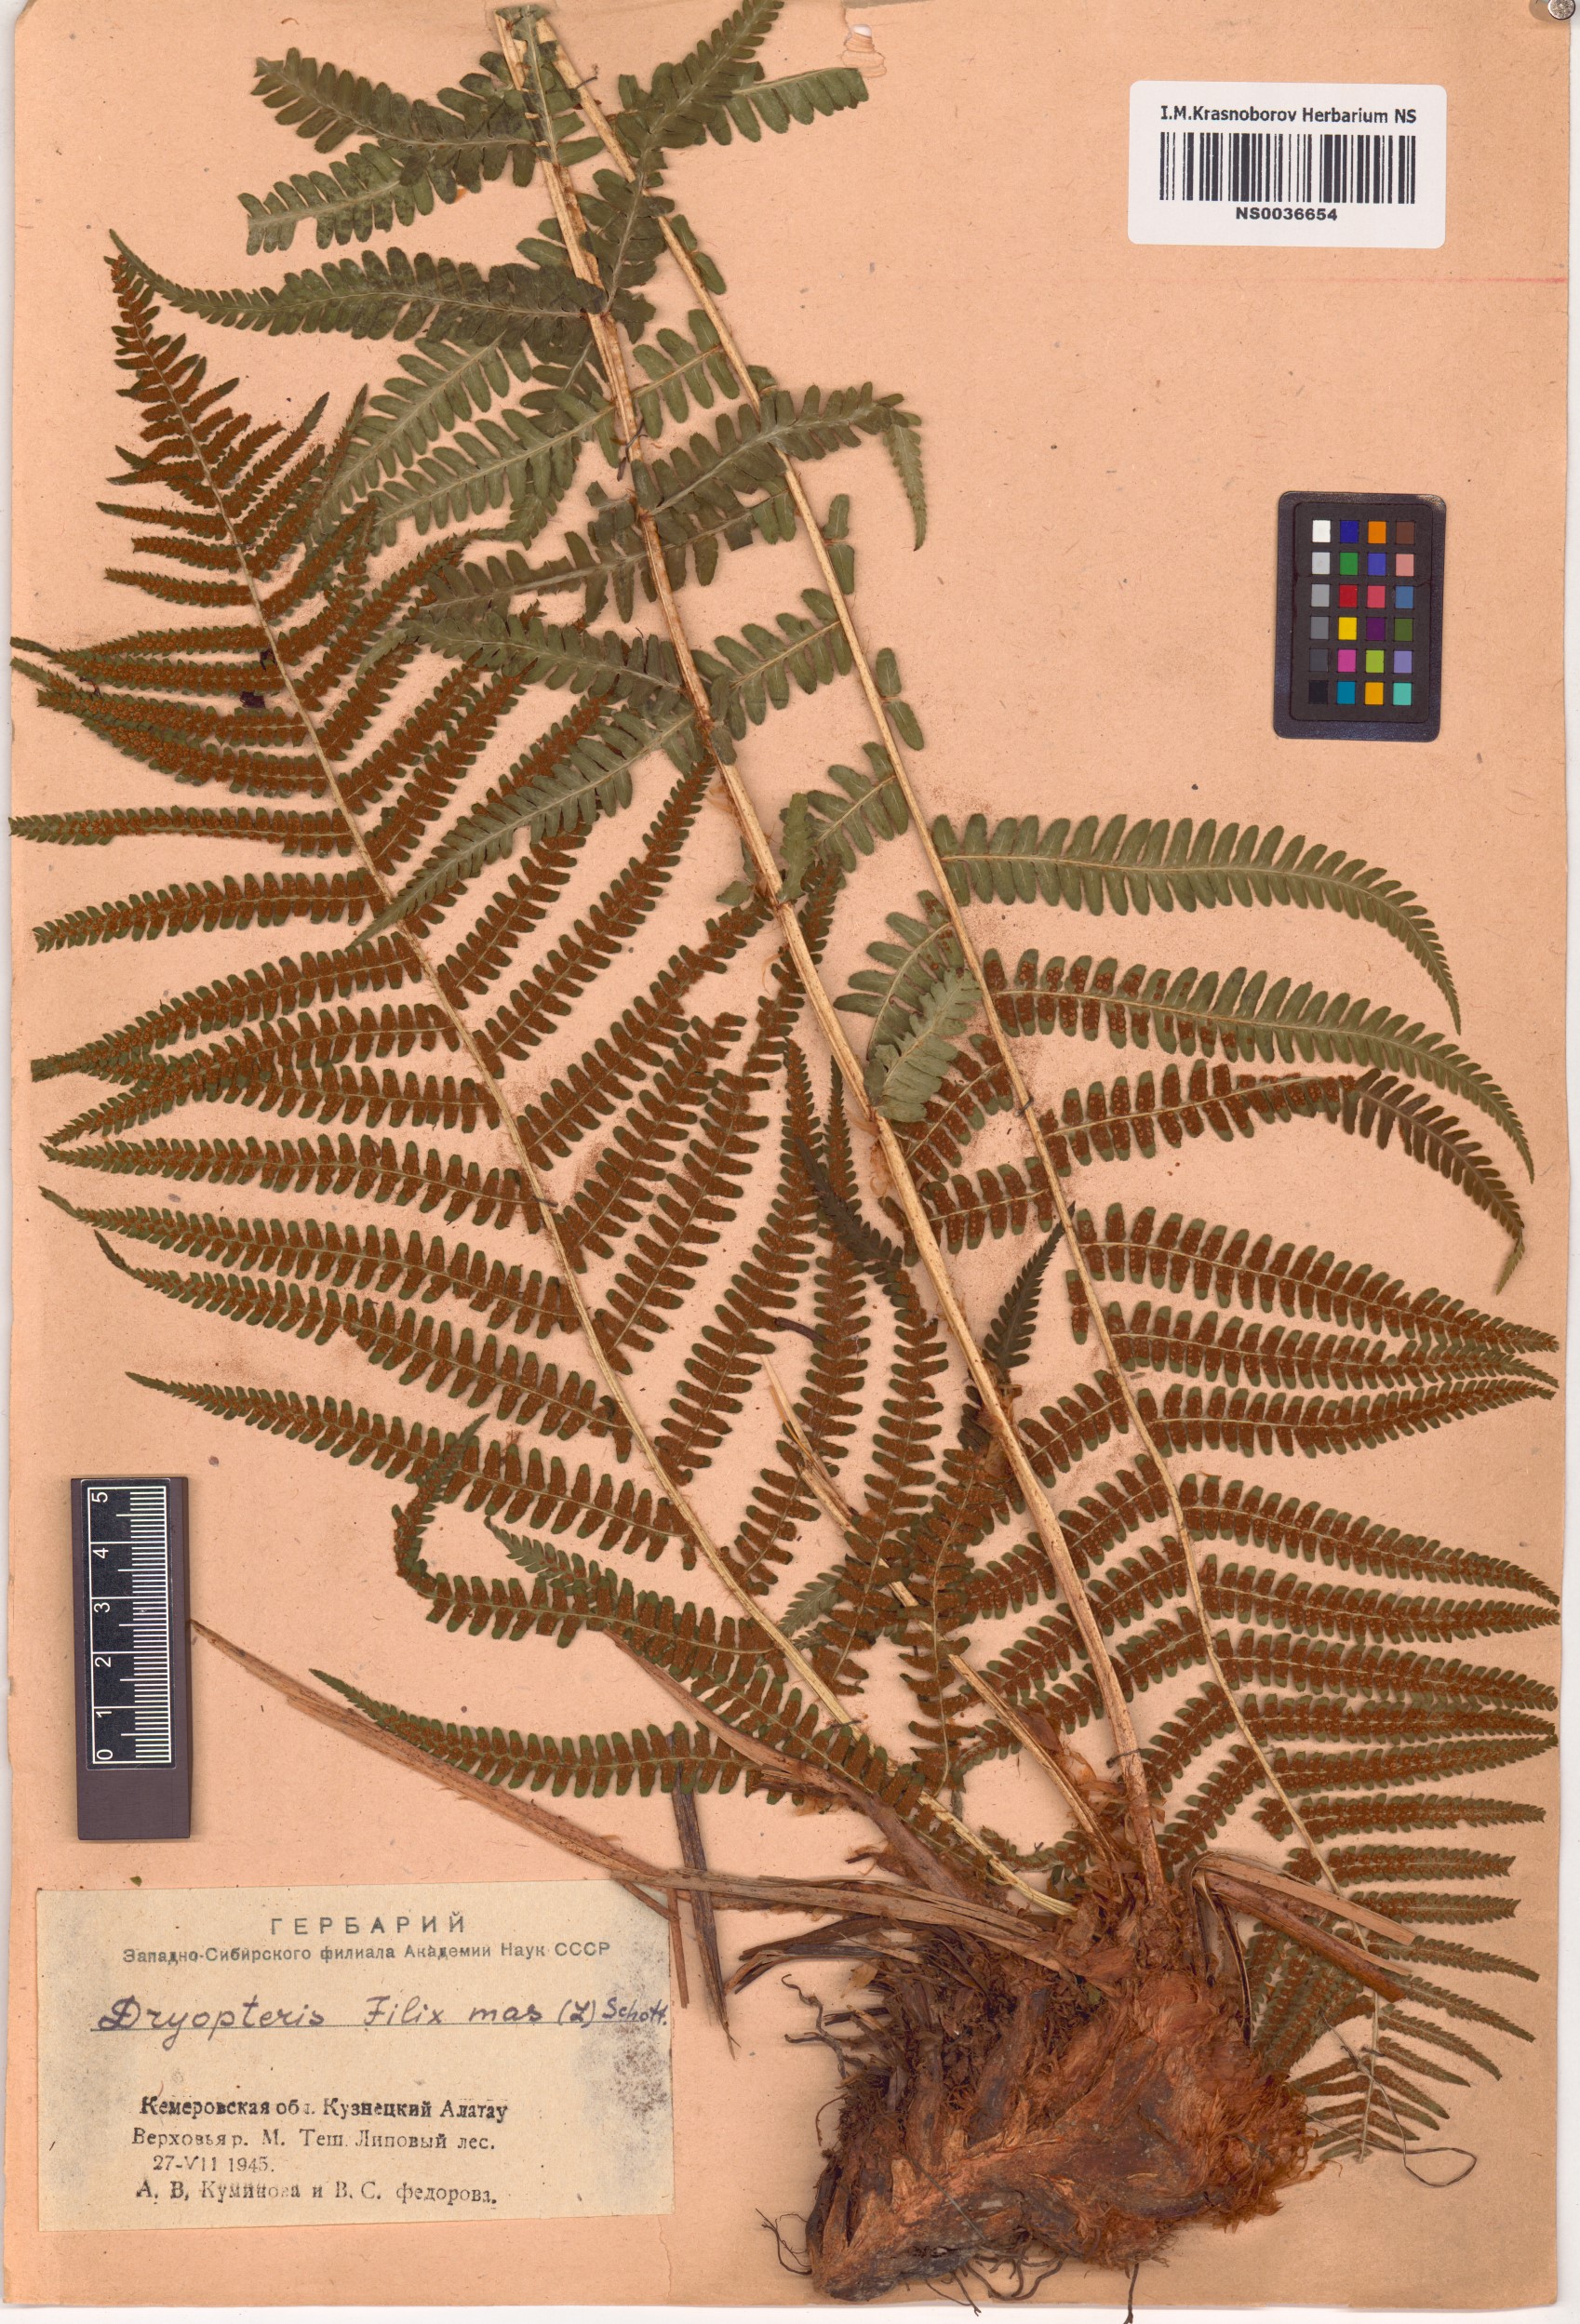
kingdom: Plantae
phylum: Tracheophyta
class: Polypodiopsida
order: Polypodiales
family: Dryopteridaceae
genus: Dryopteris
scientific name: Dryopteris filix-mas
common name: Male fern
